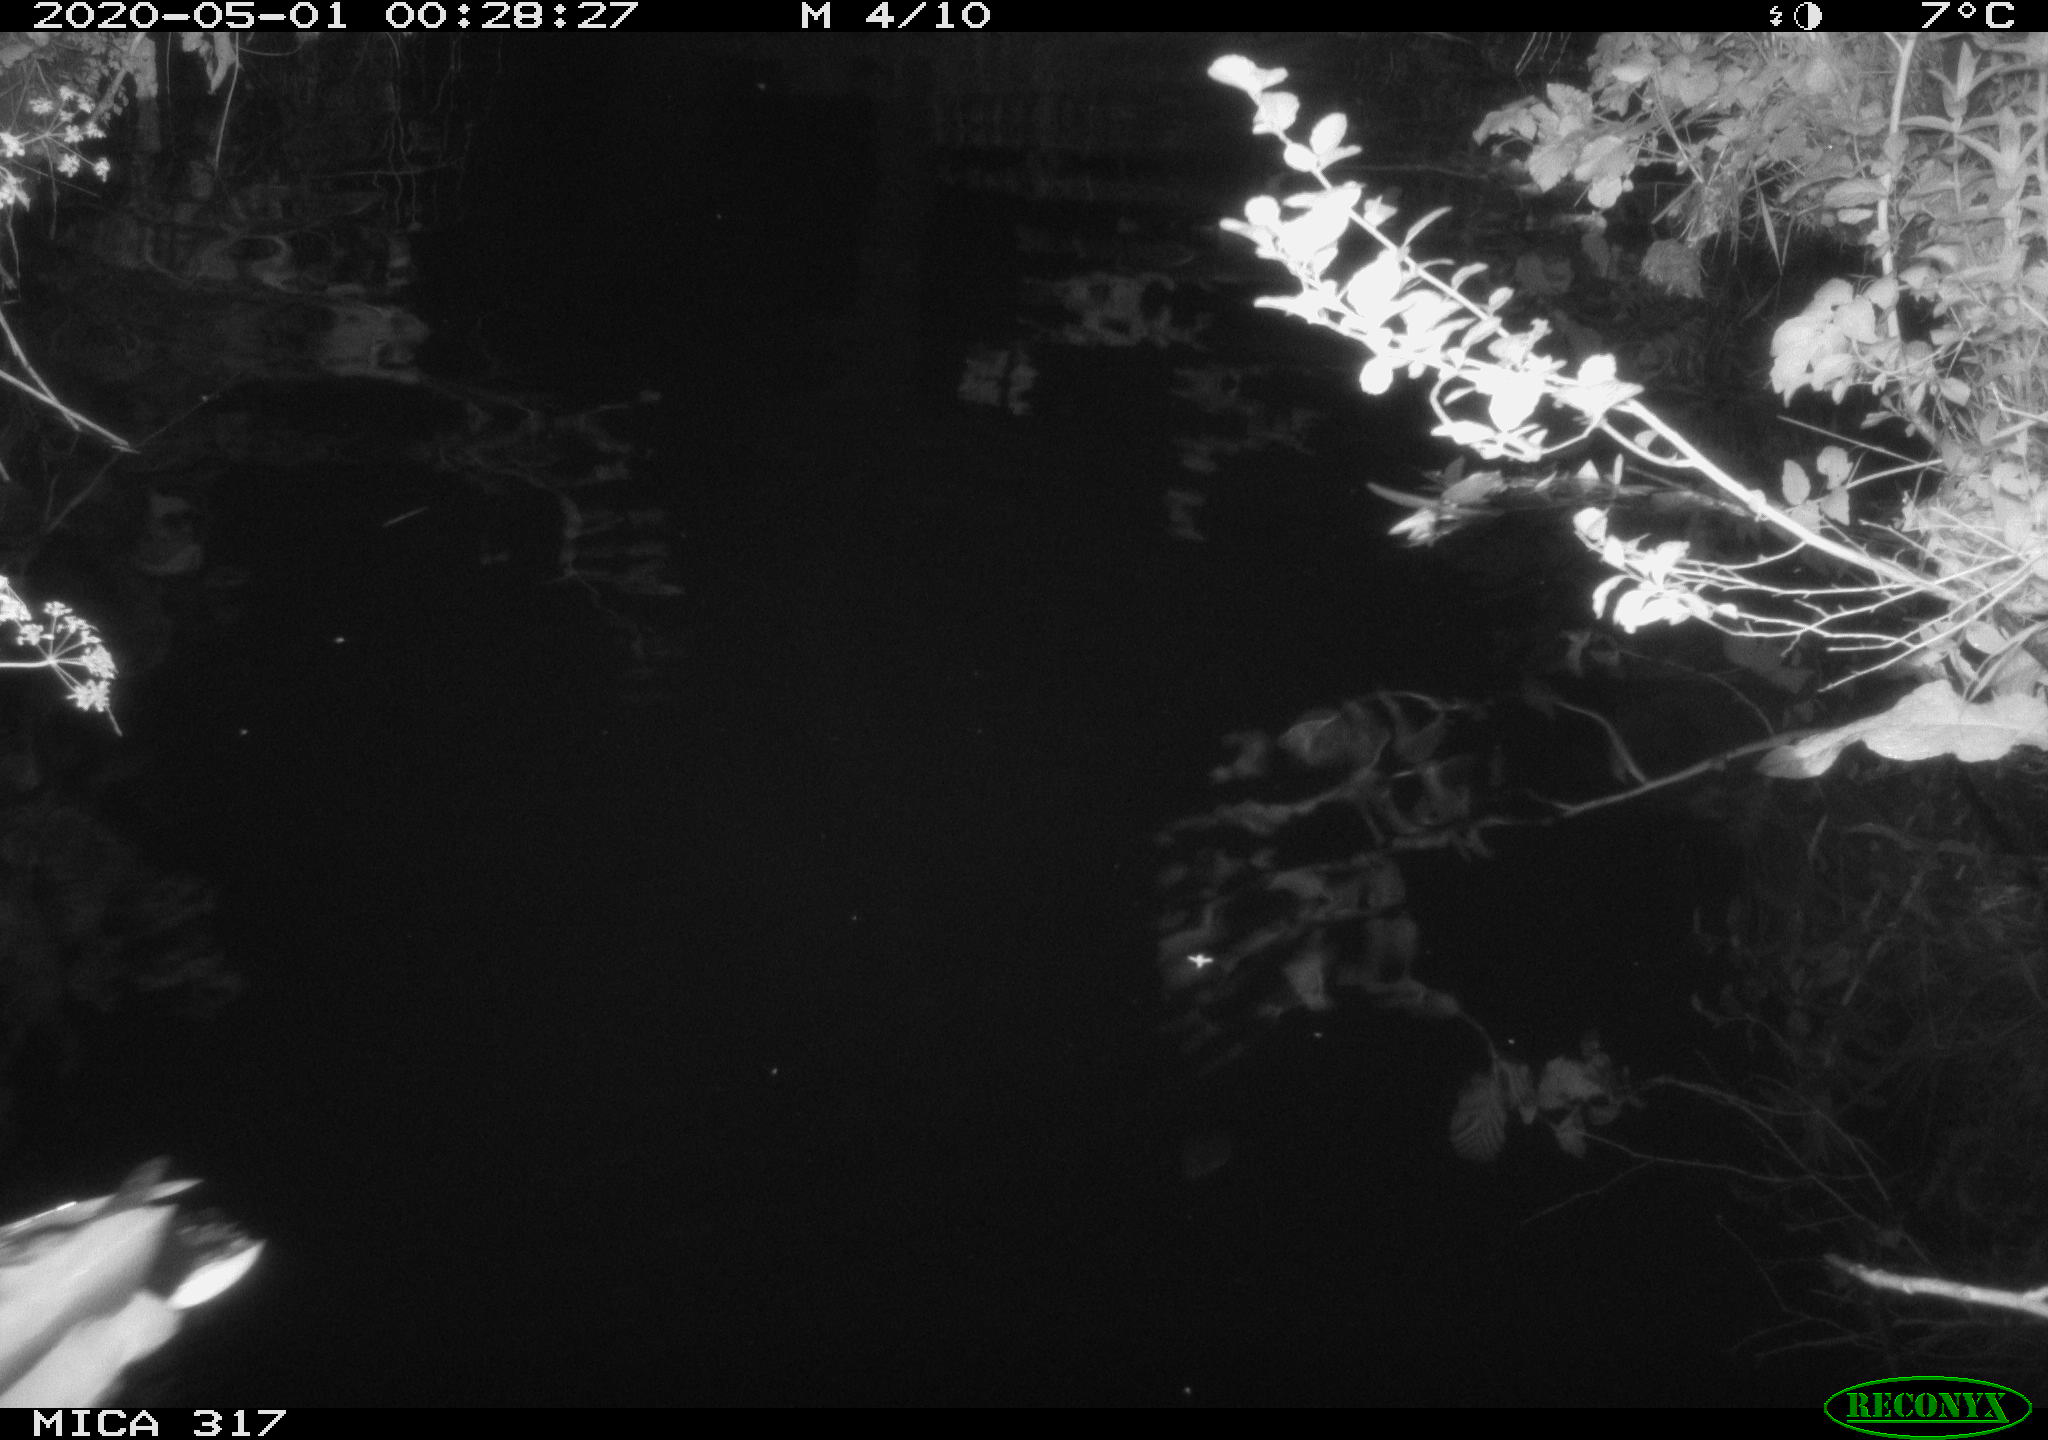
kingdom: Animalia
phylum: Chordata
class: Aves
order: Anseriformes
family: Anatidae
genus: Anas
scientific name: Anas platyrhynchos
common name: Mallard
